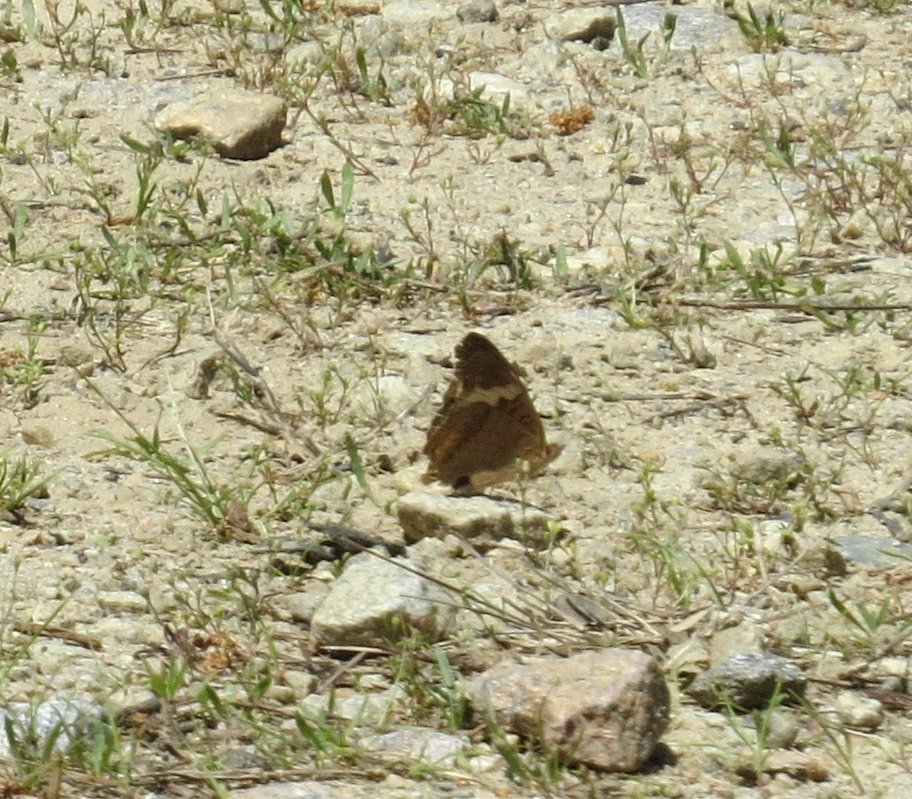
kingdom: Animalia
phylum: Arthropoda
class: Insecta
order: Lepidoptera
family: Nymphalidae
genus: Junonia
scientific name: Junonia coenia
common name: Common Buckeye
